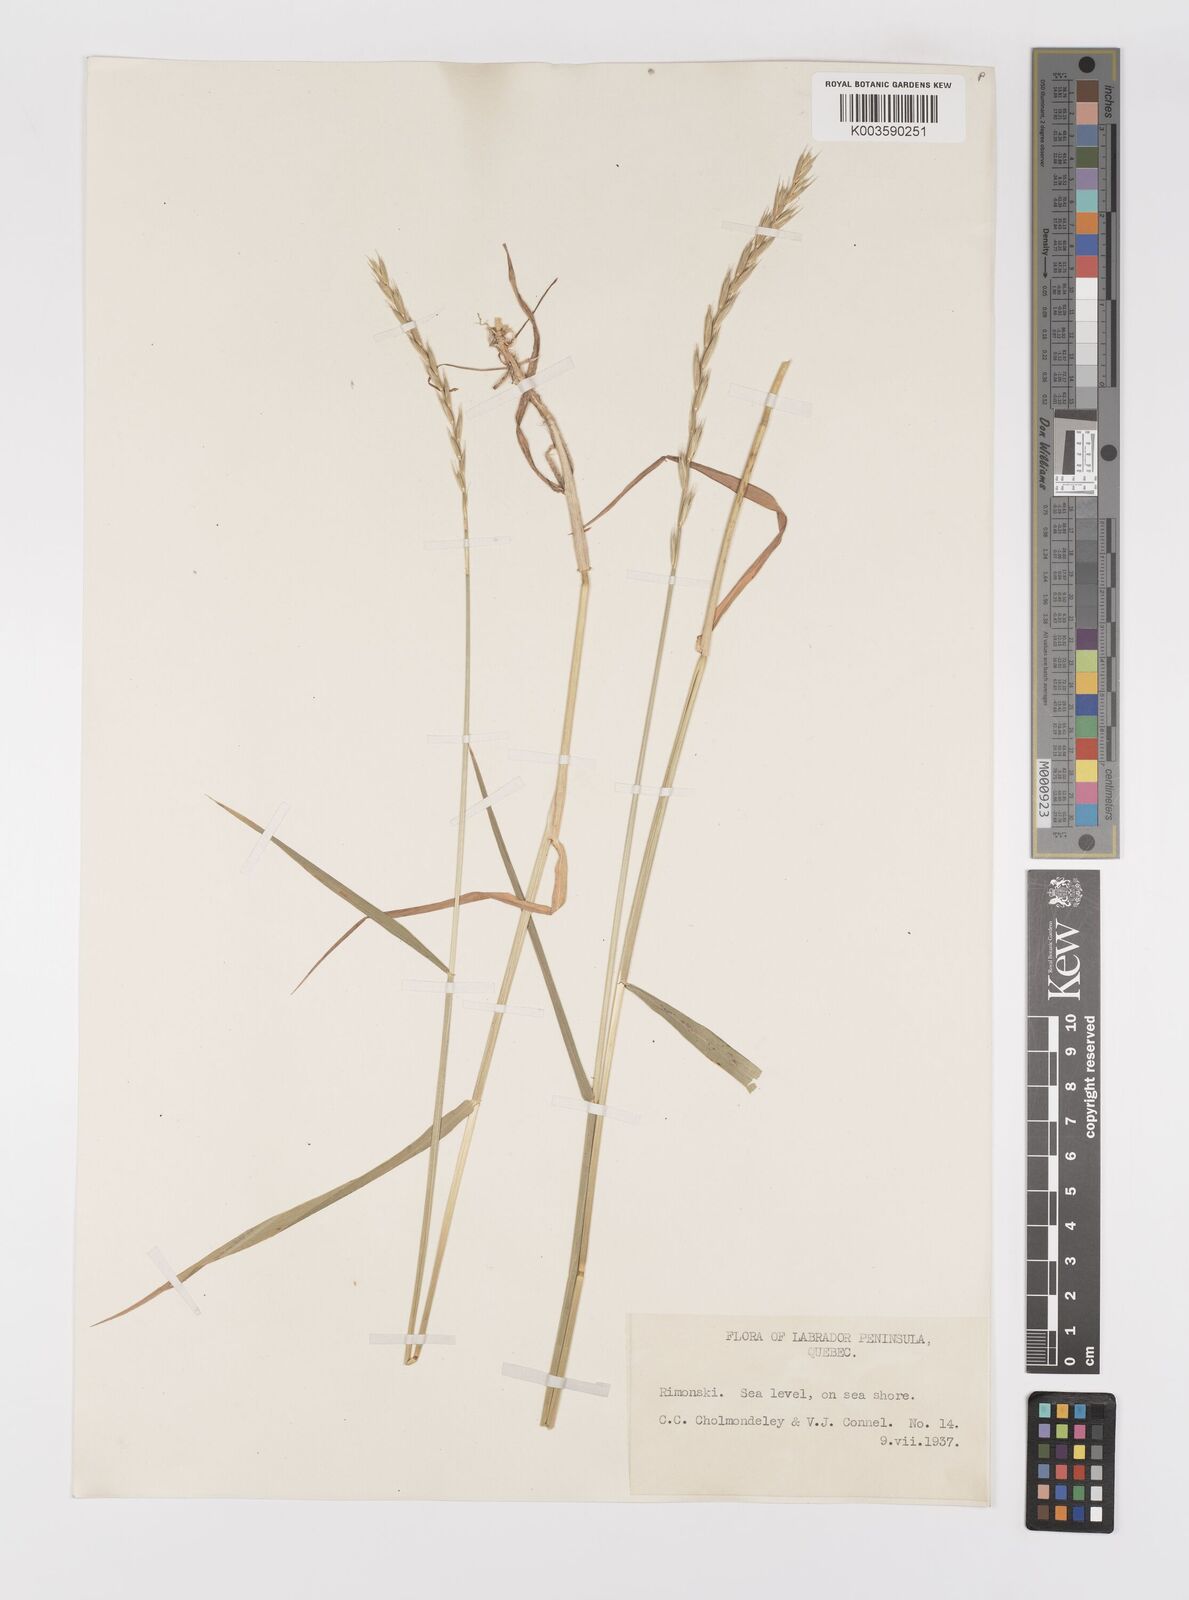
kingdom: Plantae
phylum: Tracheophyta
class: Liliopsida
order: Poales
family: Poaceae
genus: Elymus
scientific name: Elymus
